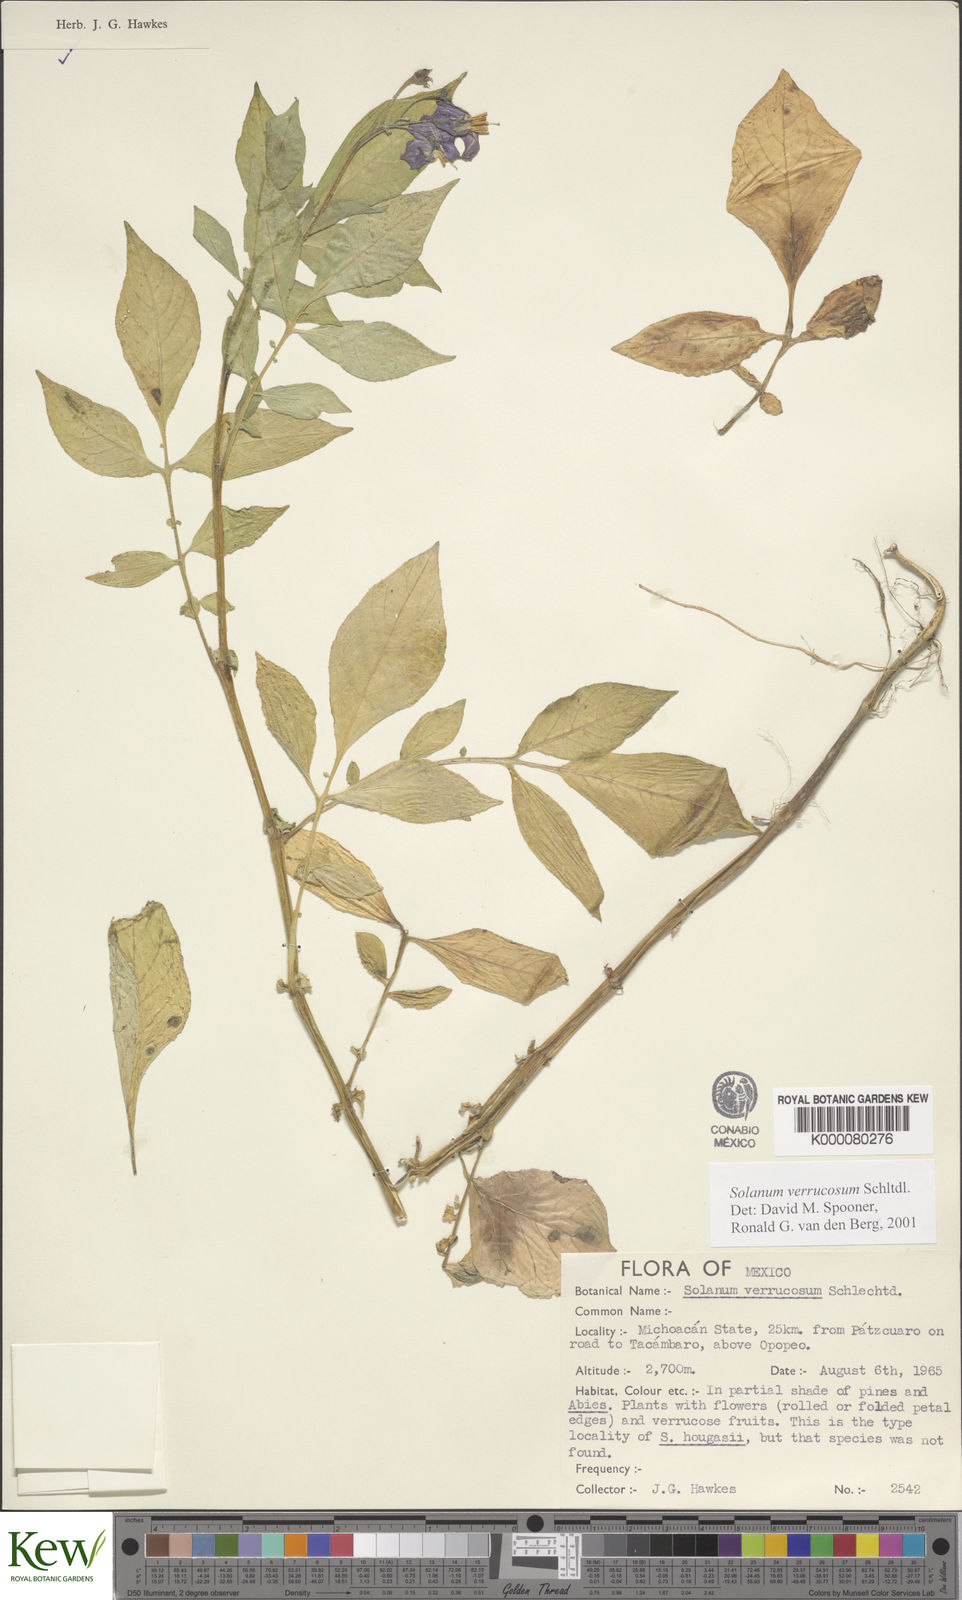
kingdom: Plantae
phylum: Tracheophyta
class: Magnoliopsida
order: Solanales
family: Solanaceae
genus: Solanum
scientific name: Solanum verrucosum
